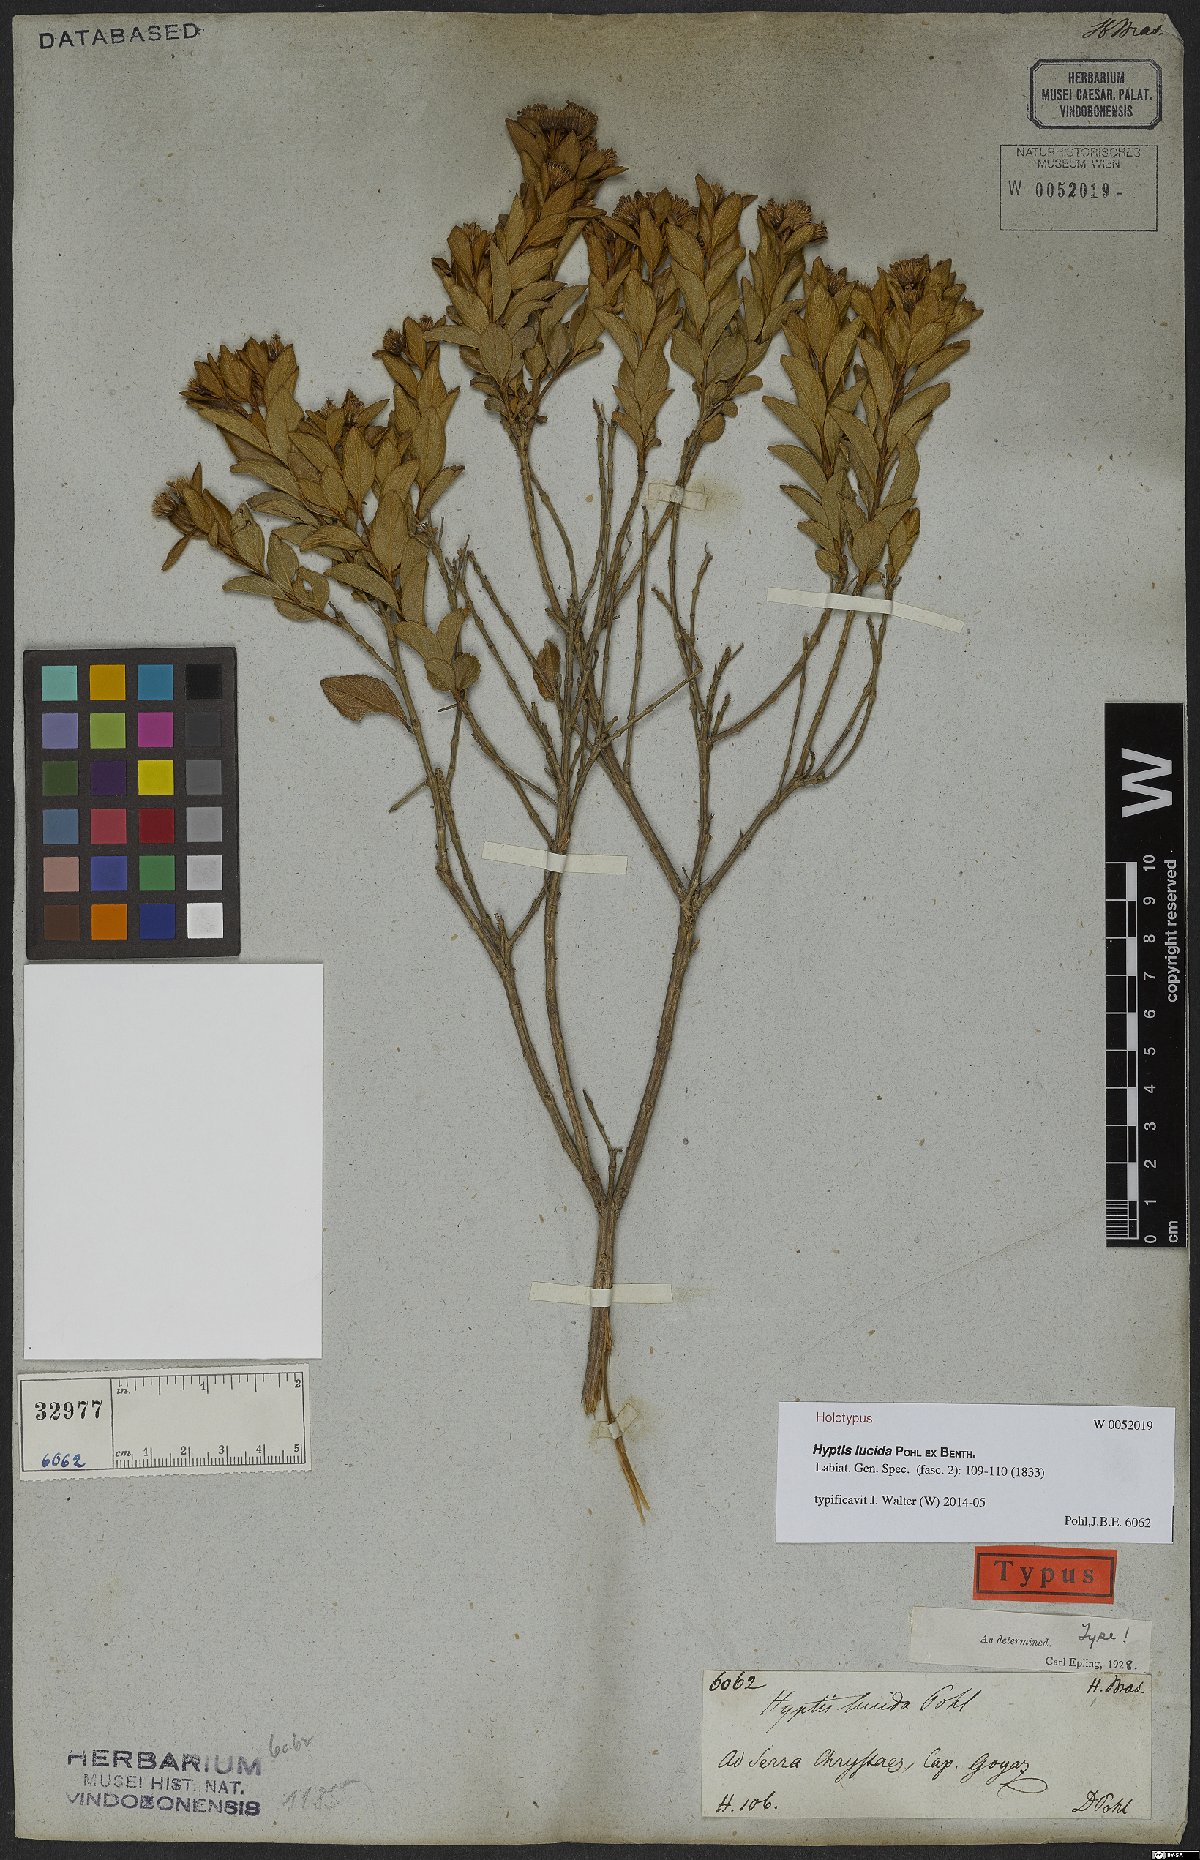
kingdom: Plantae
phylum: Tracheophyta
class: Magnoliopsida
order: Lamiales
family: Lamiaceae
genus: Hyptis
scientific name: Hyptis lucida
